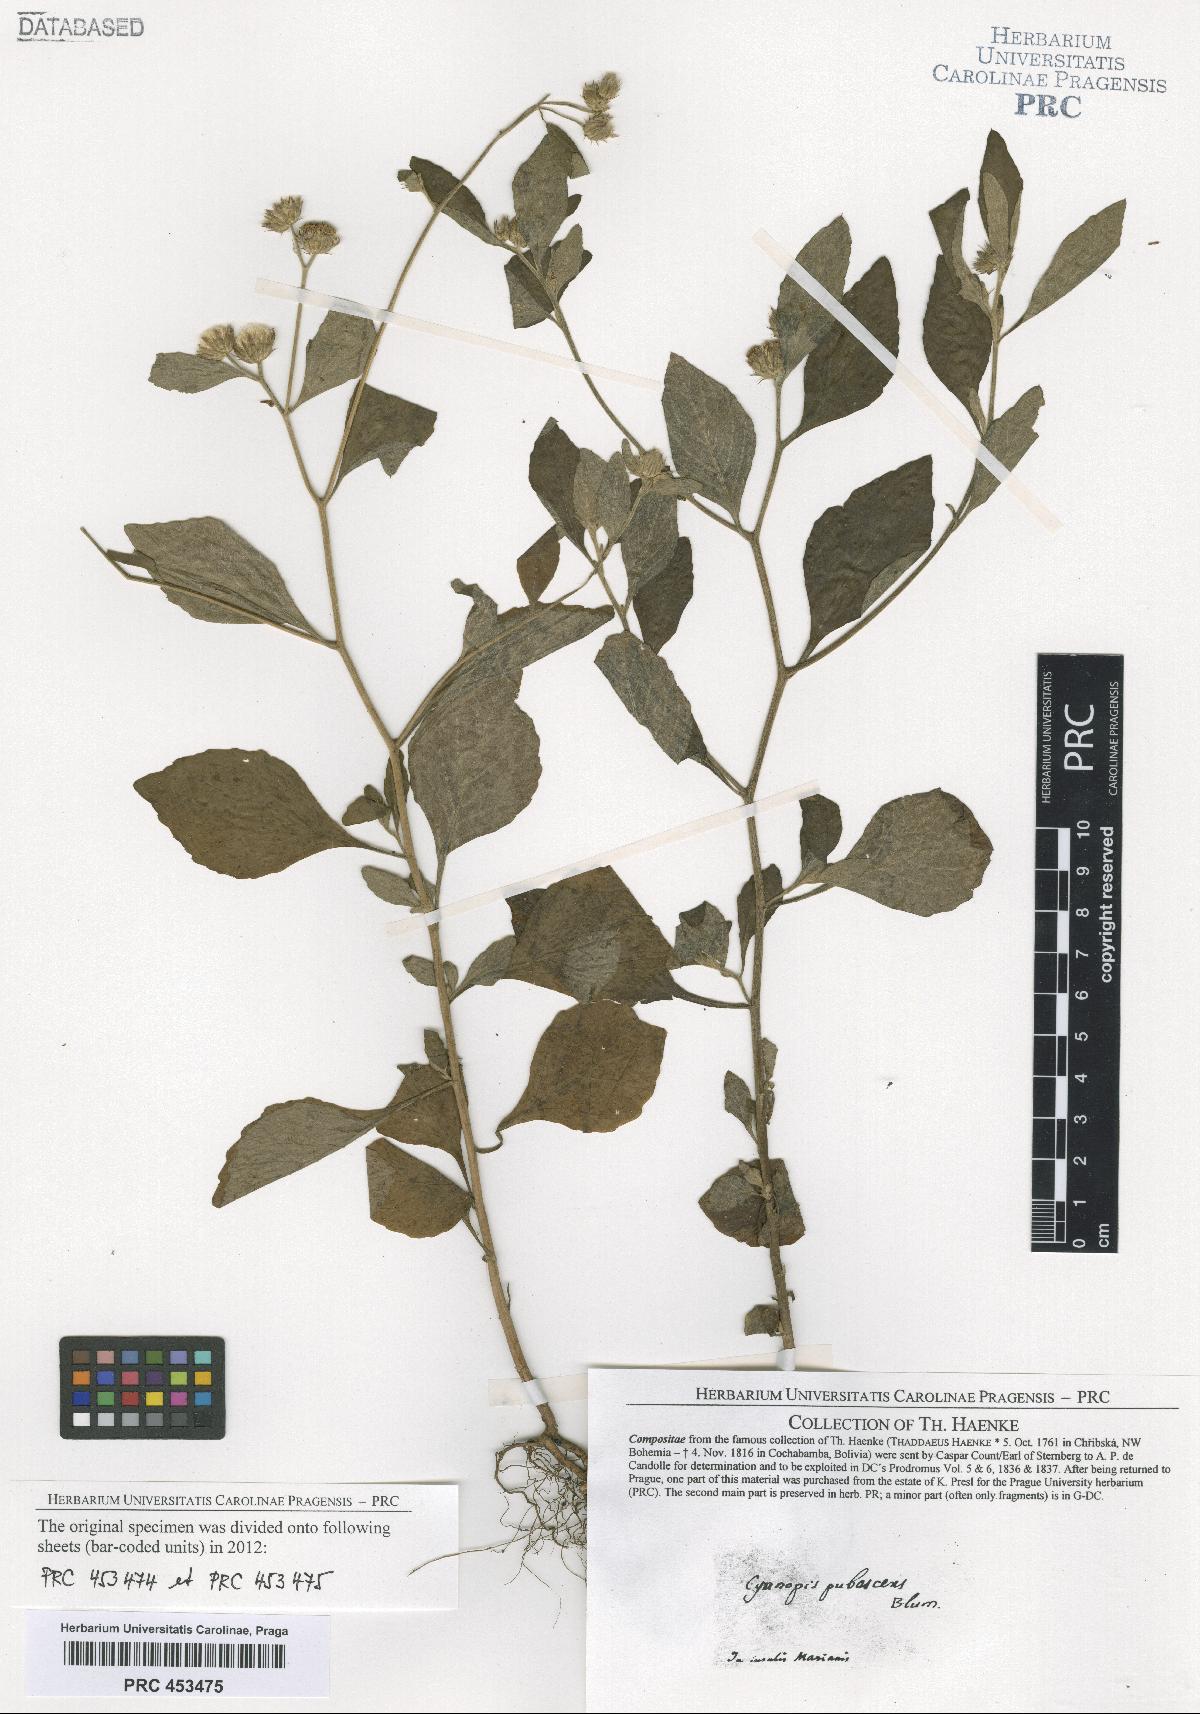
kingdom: Plantae
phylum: Tracheophyta
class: Magnoliopsida
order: Asterales
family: Asteraceae
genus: Vernonia
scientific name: Vernonia
